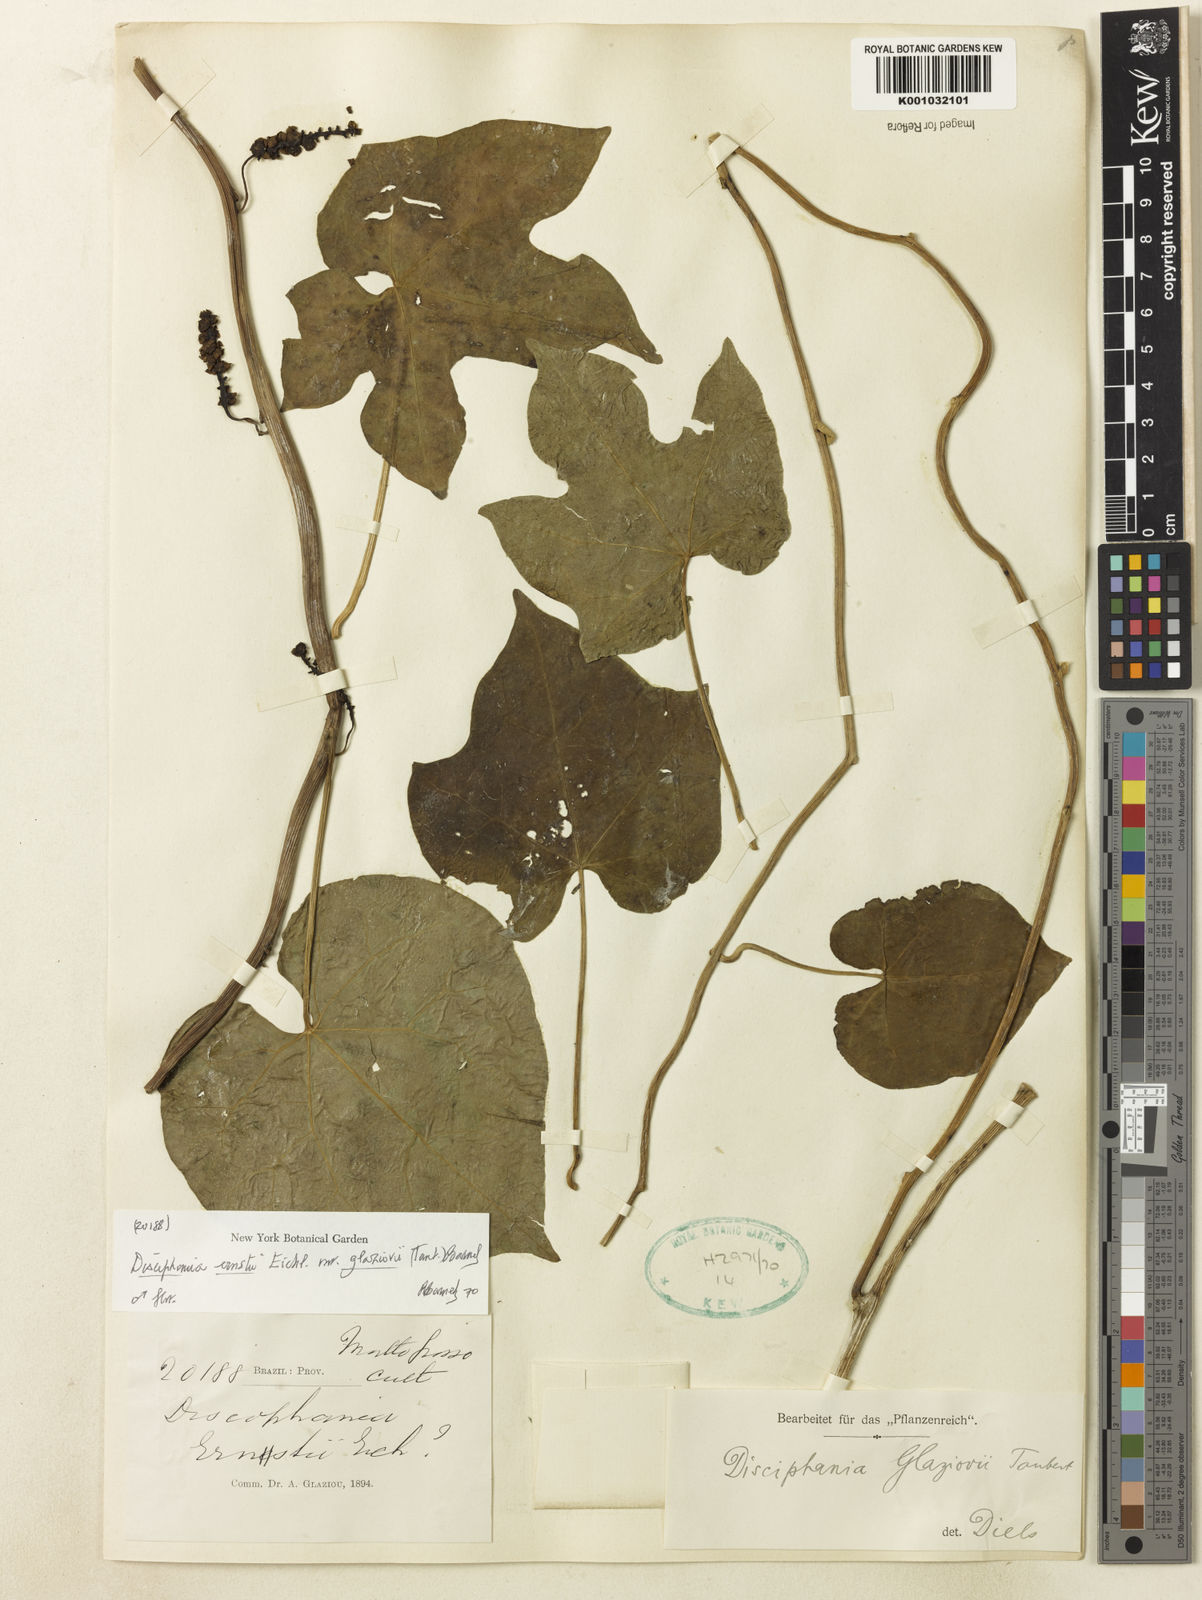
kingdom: Plantae
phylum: Tracheophyta
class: Magnoliopsida
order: Ranunculales
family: Menispermaceae
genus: Disciphania
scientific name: Disciphania ernstii
